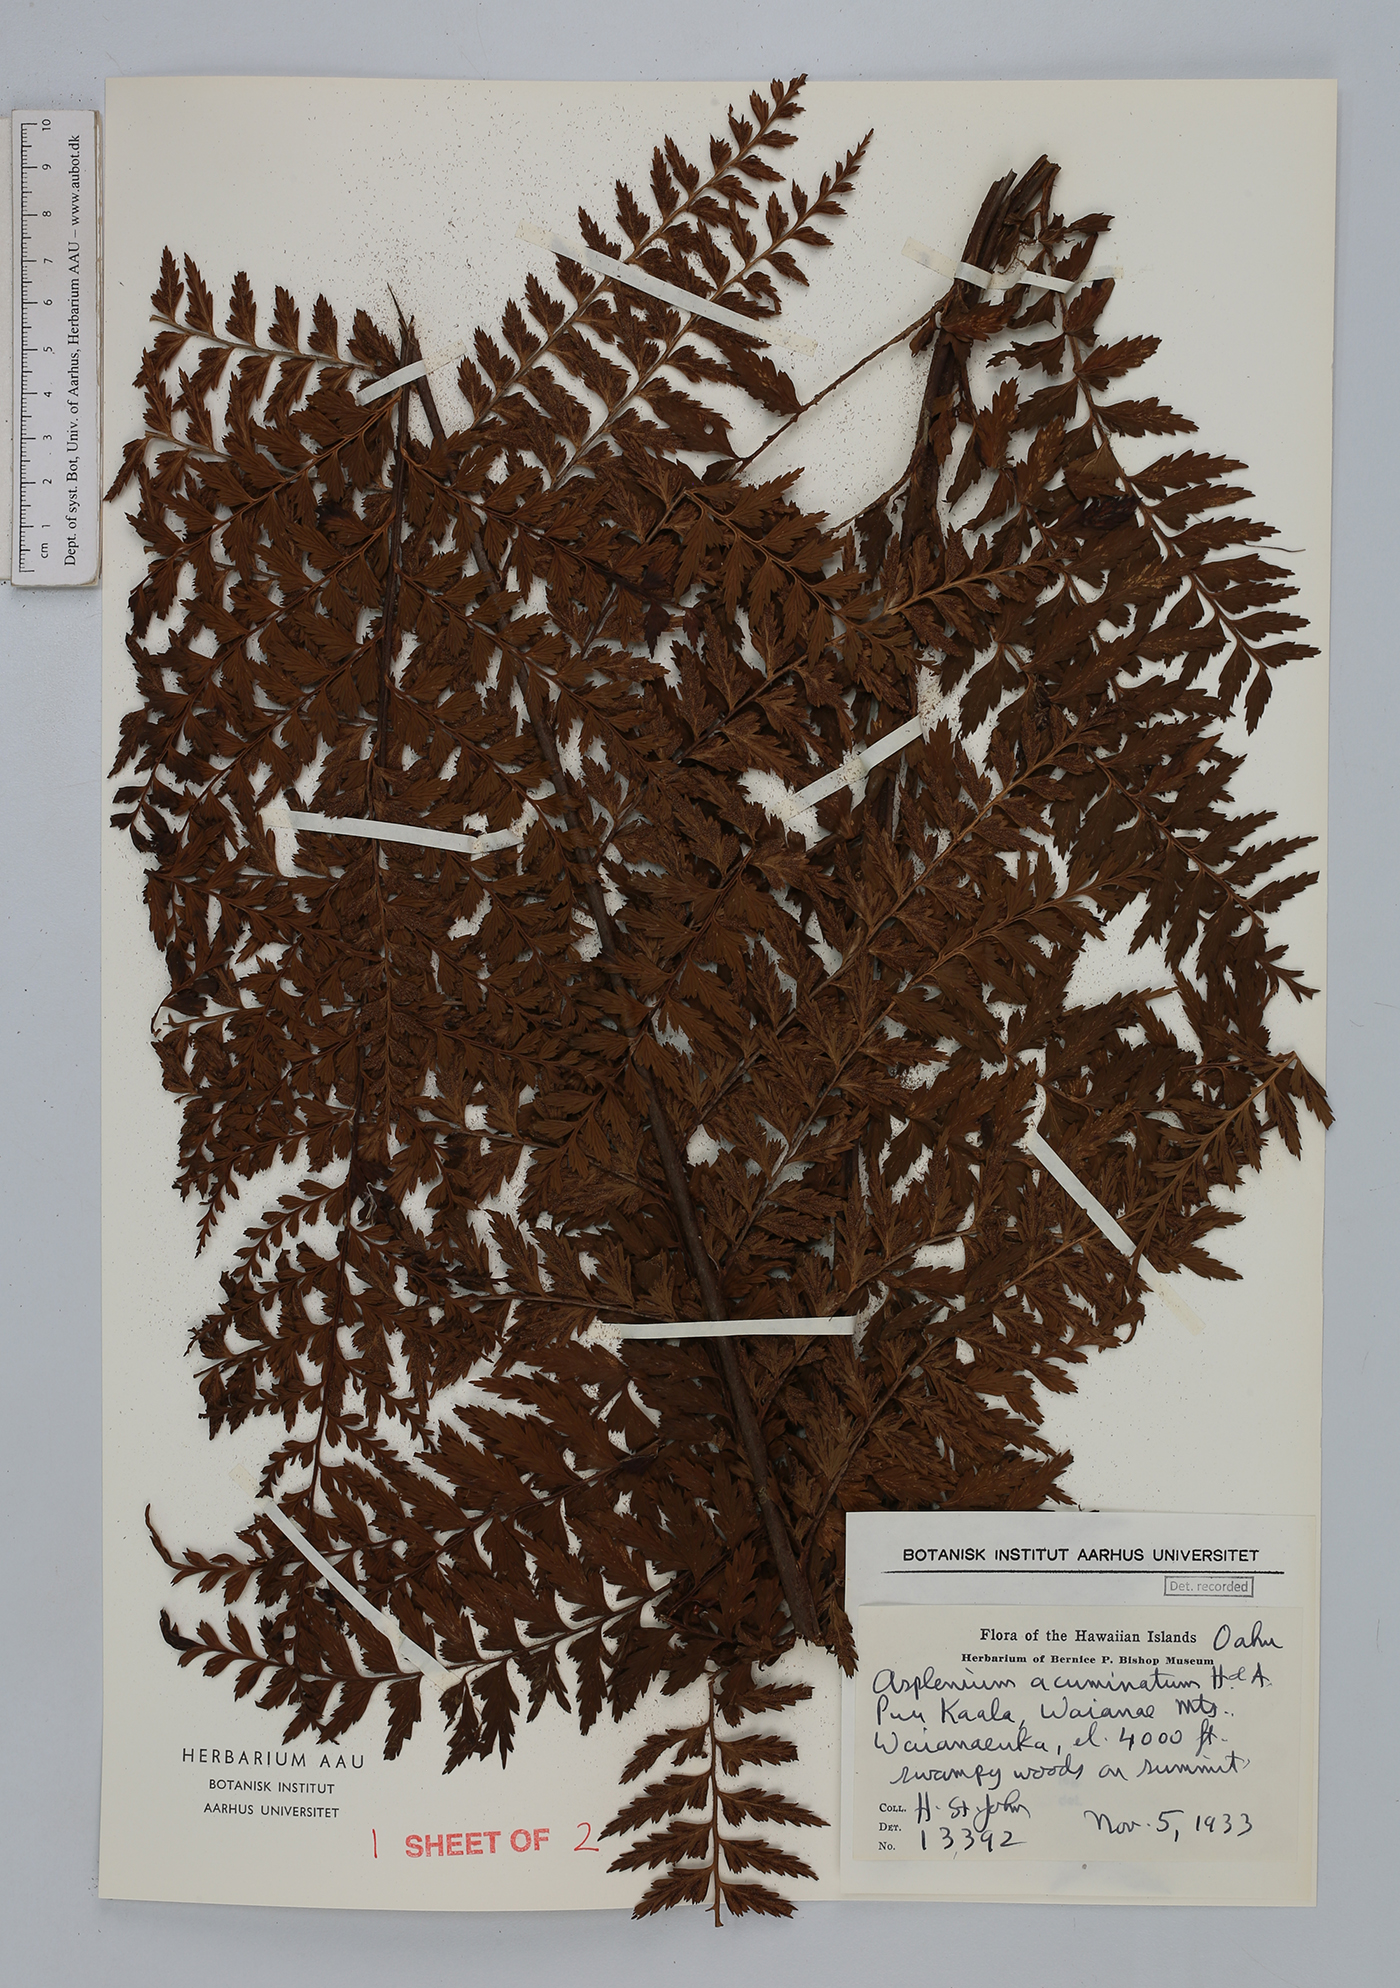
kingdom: Plantae
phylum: Tracheophyta
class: Polypodiopsida
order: Polypodiales
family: Aspleniaceae
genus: Asplenium
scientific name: Asplenium acuminatum
